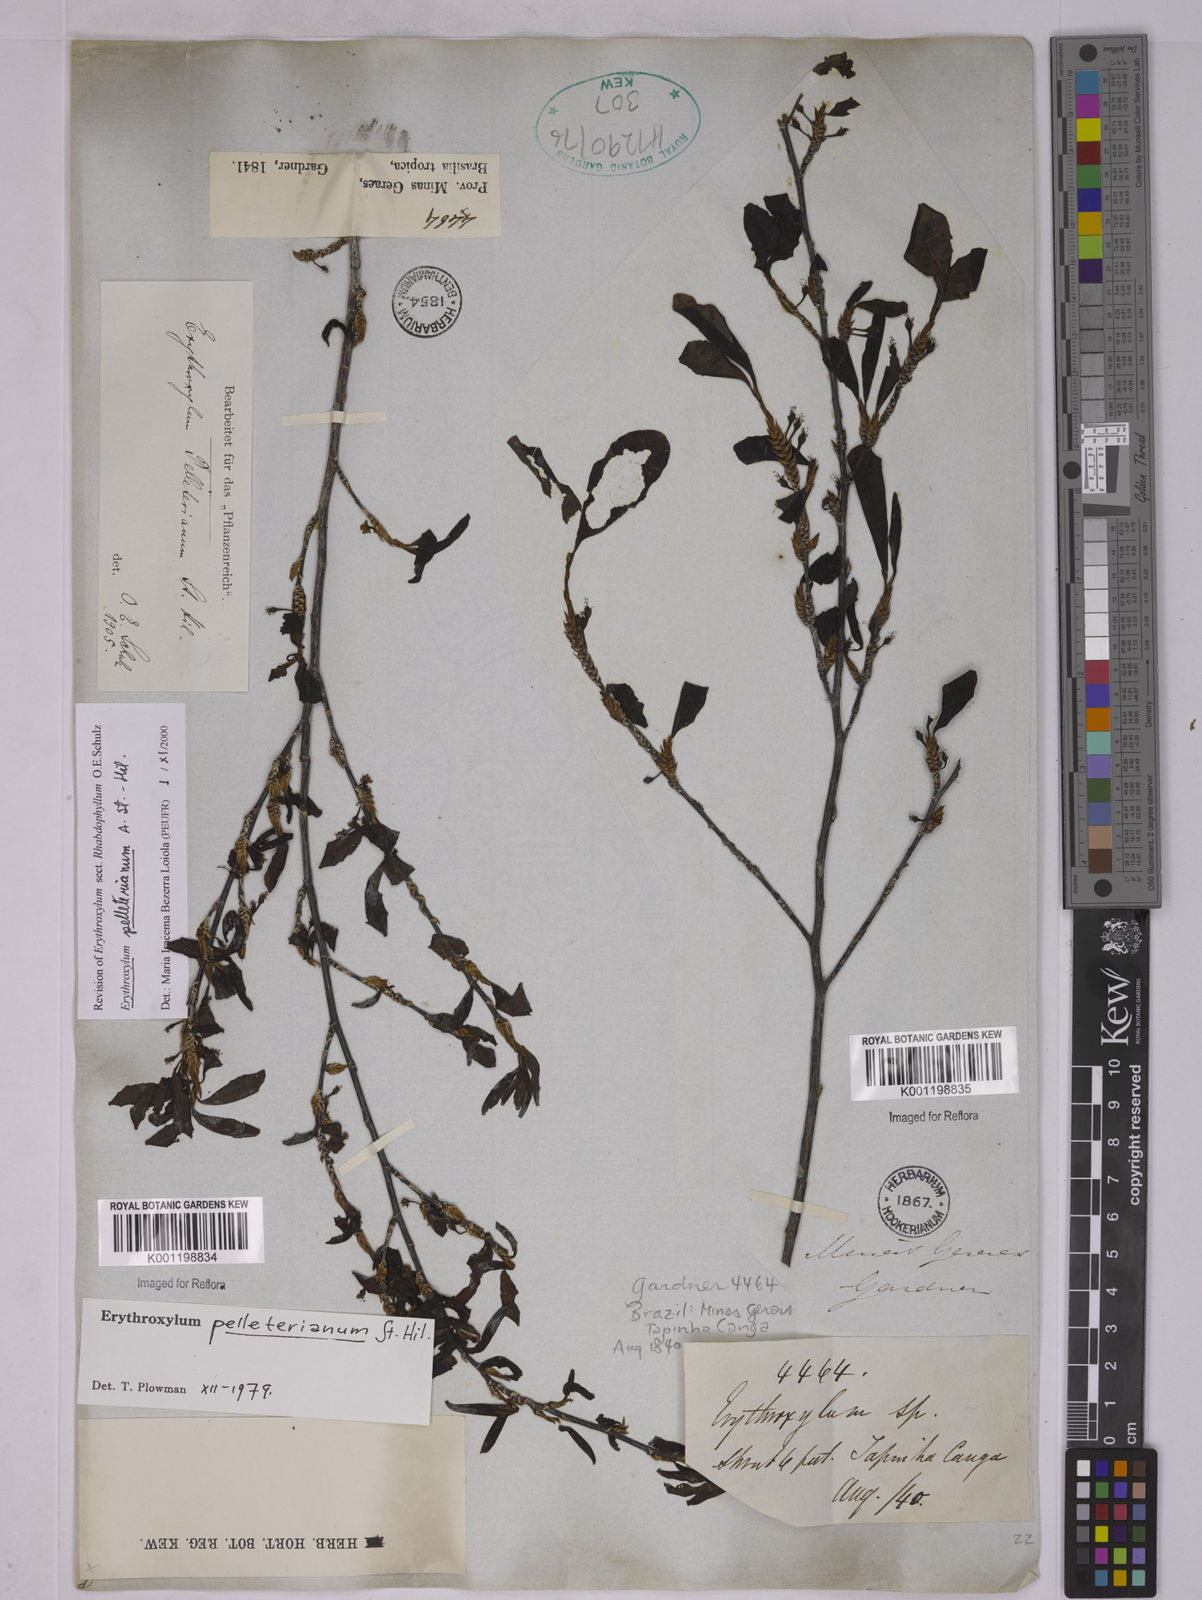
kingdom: Plantae
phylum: Tracheophyta
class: Magnoliopsida
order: Malpighiales
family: Erythroxylaceae
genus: Erythroxylum
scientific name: Erythroxylum pelleterianum
